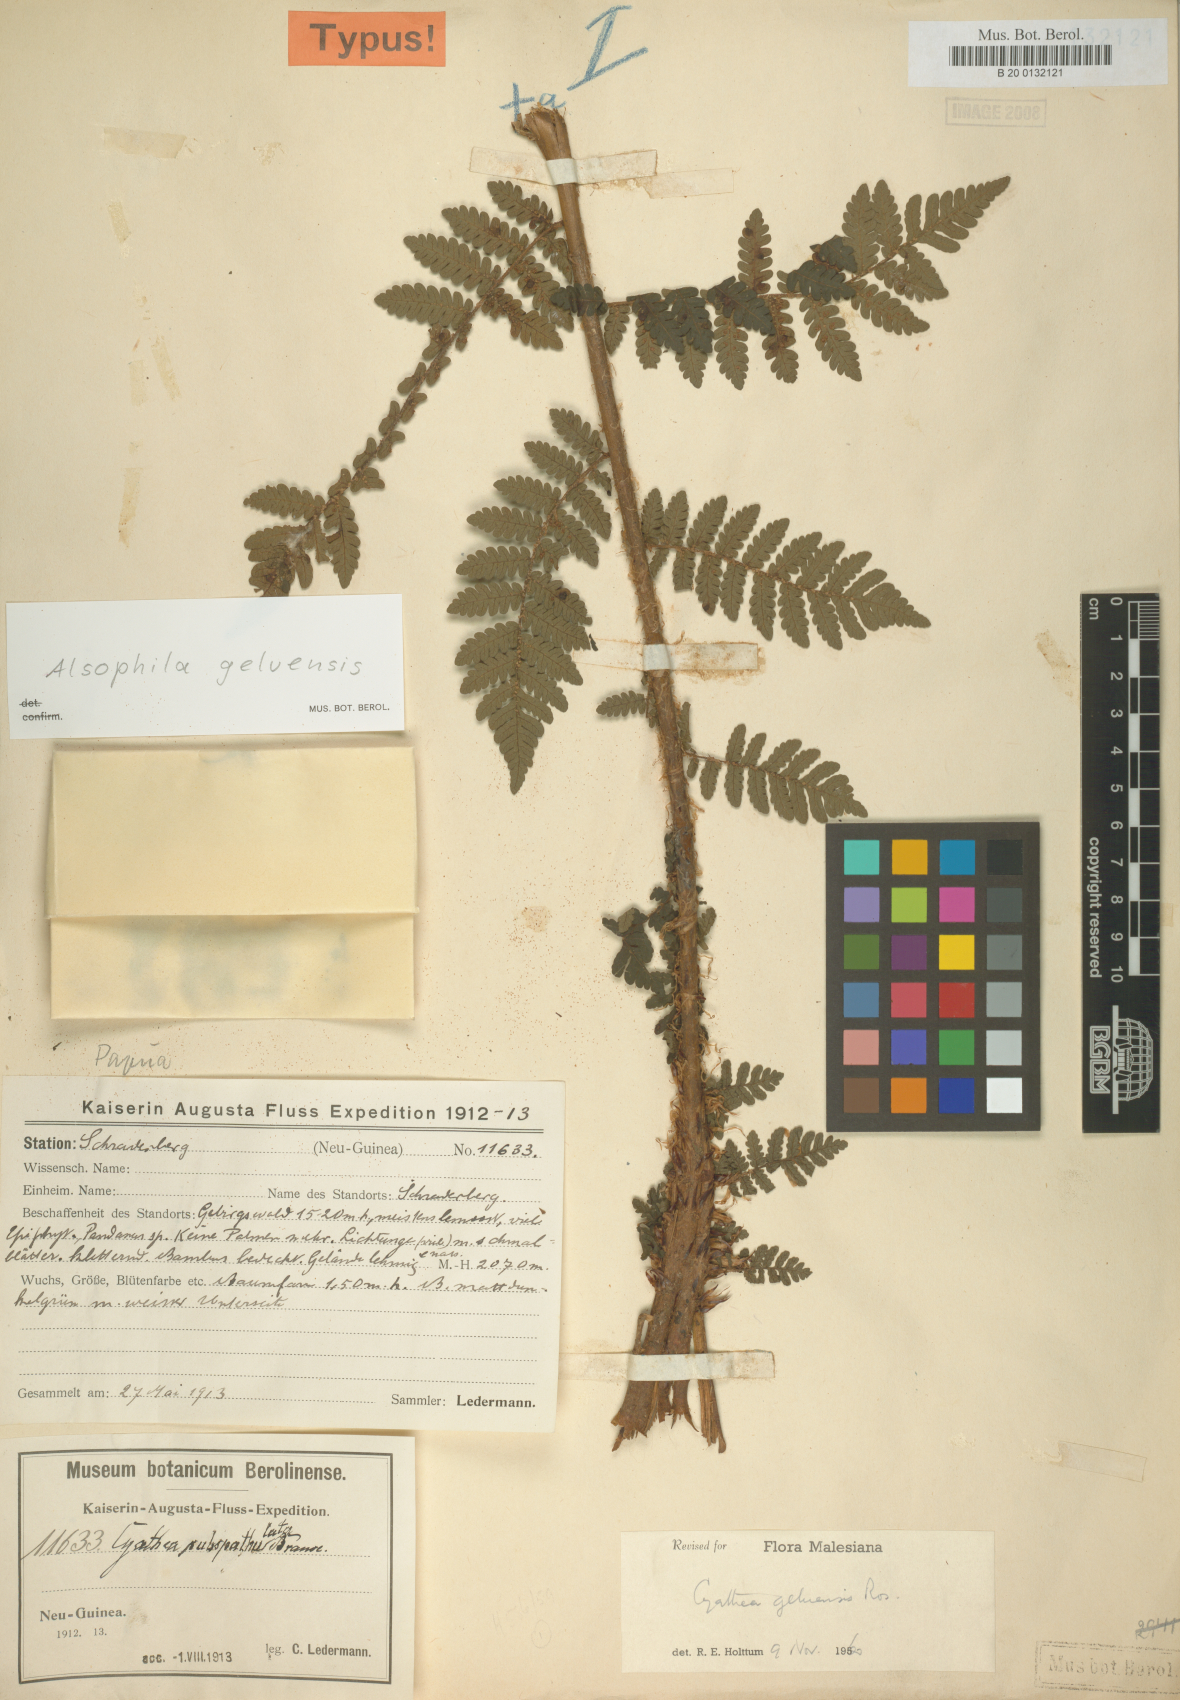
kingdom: Plantae
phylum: Tracheophyta
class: Polypodiopsida
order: Cyatheales
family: Cyatheaceae
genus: Alsophila
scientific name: Alsophila geluensis
